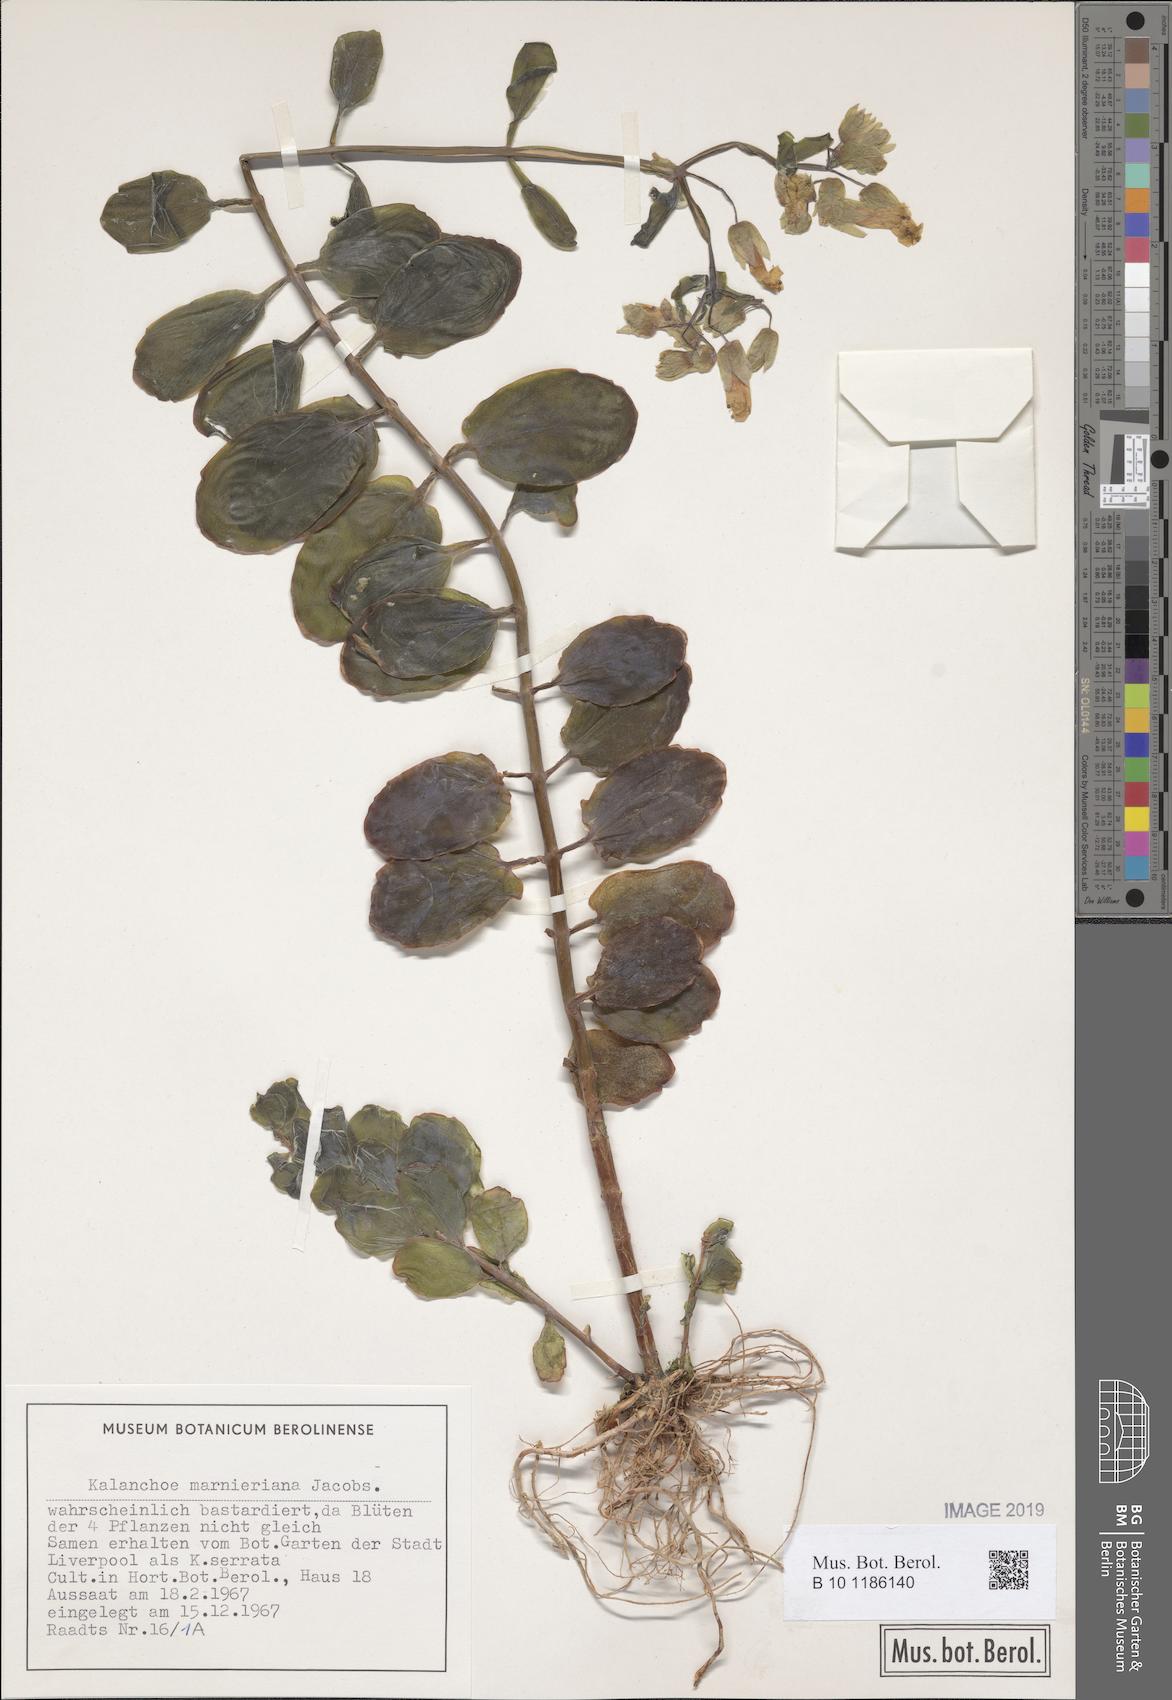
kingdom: Plantae
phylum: Tracheophyta
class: Magnoliopsida
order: Saxifragales
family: Crassulaceae
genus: Kalanchoe
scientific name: Kalanchoe marnieriana
